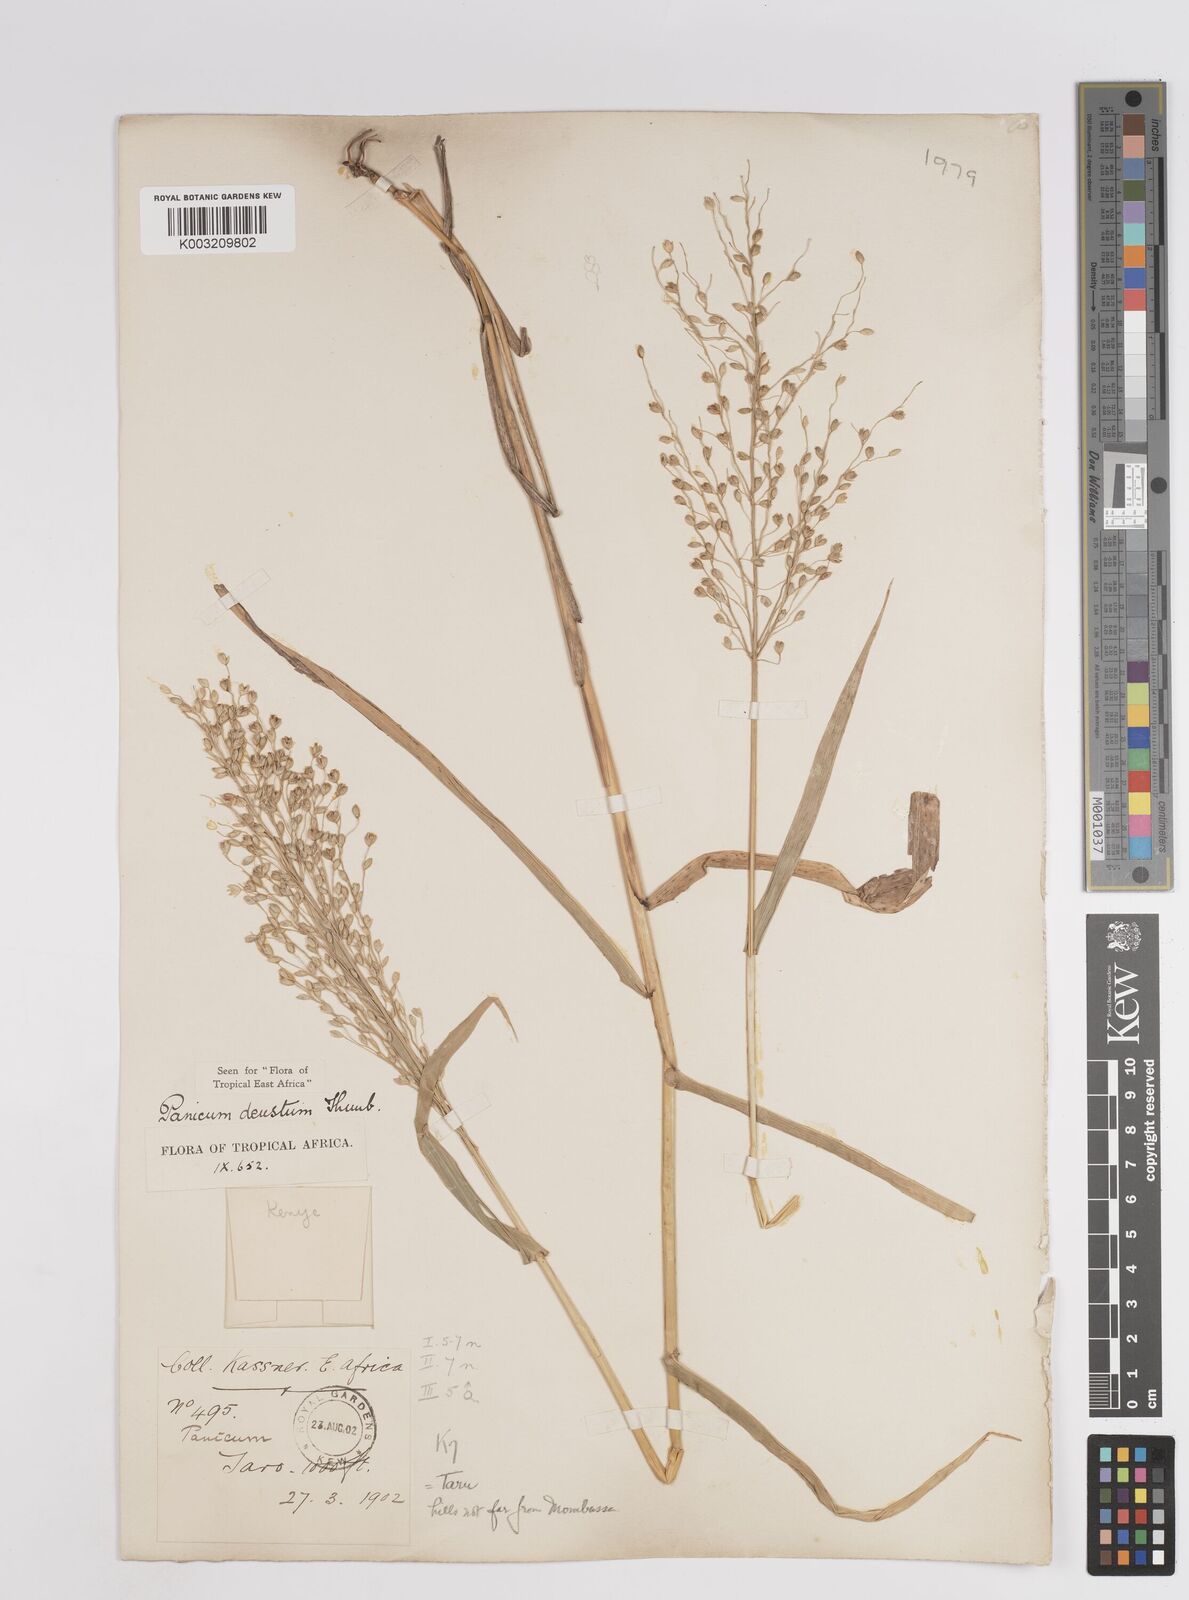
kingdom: Plantae
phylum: Tracheophyta
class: Liliopsida
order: Poales
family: Poaceae
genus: Panicum
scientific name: Panicum deustum
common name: Reed panicum
